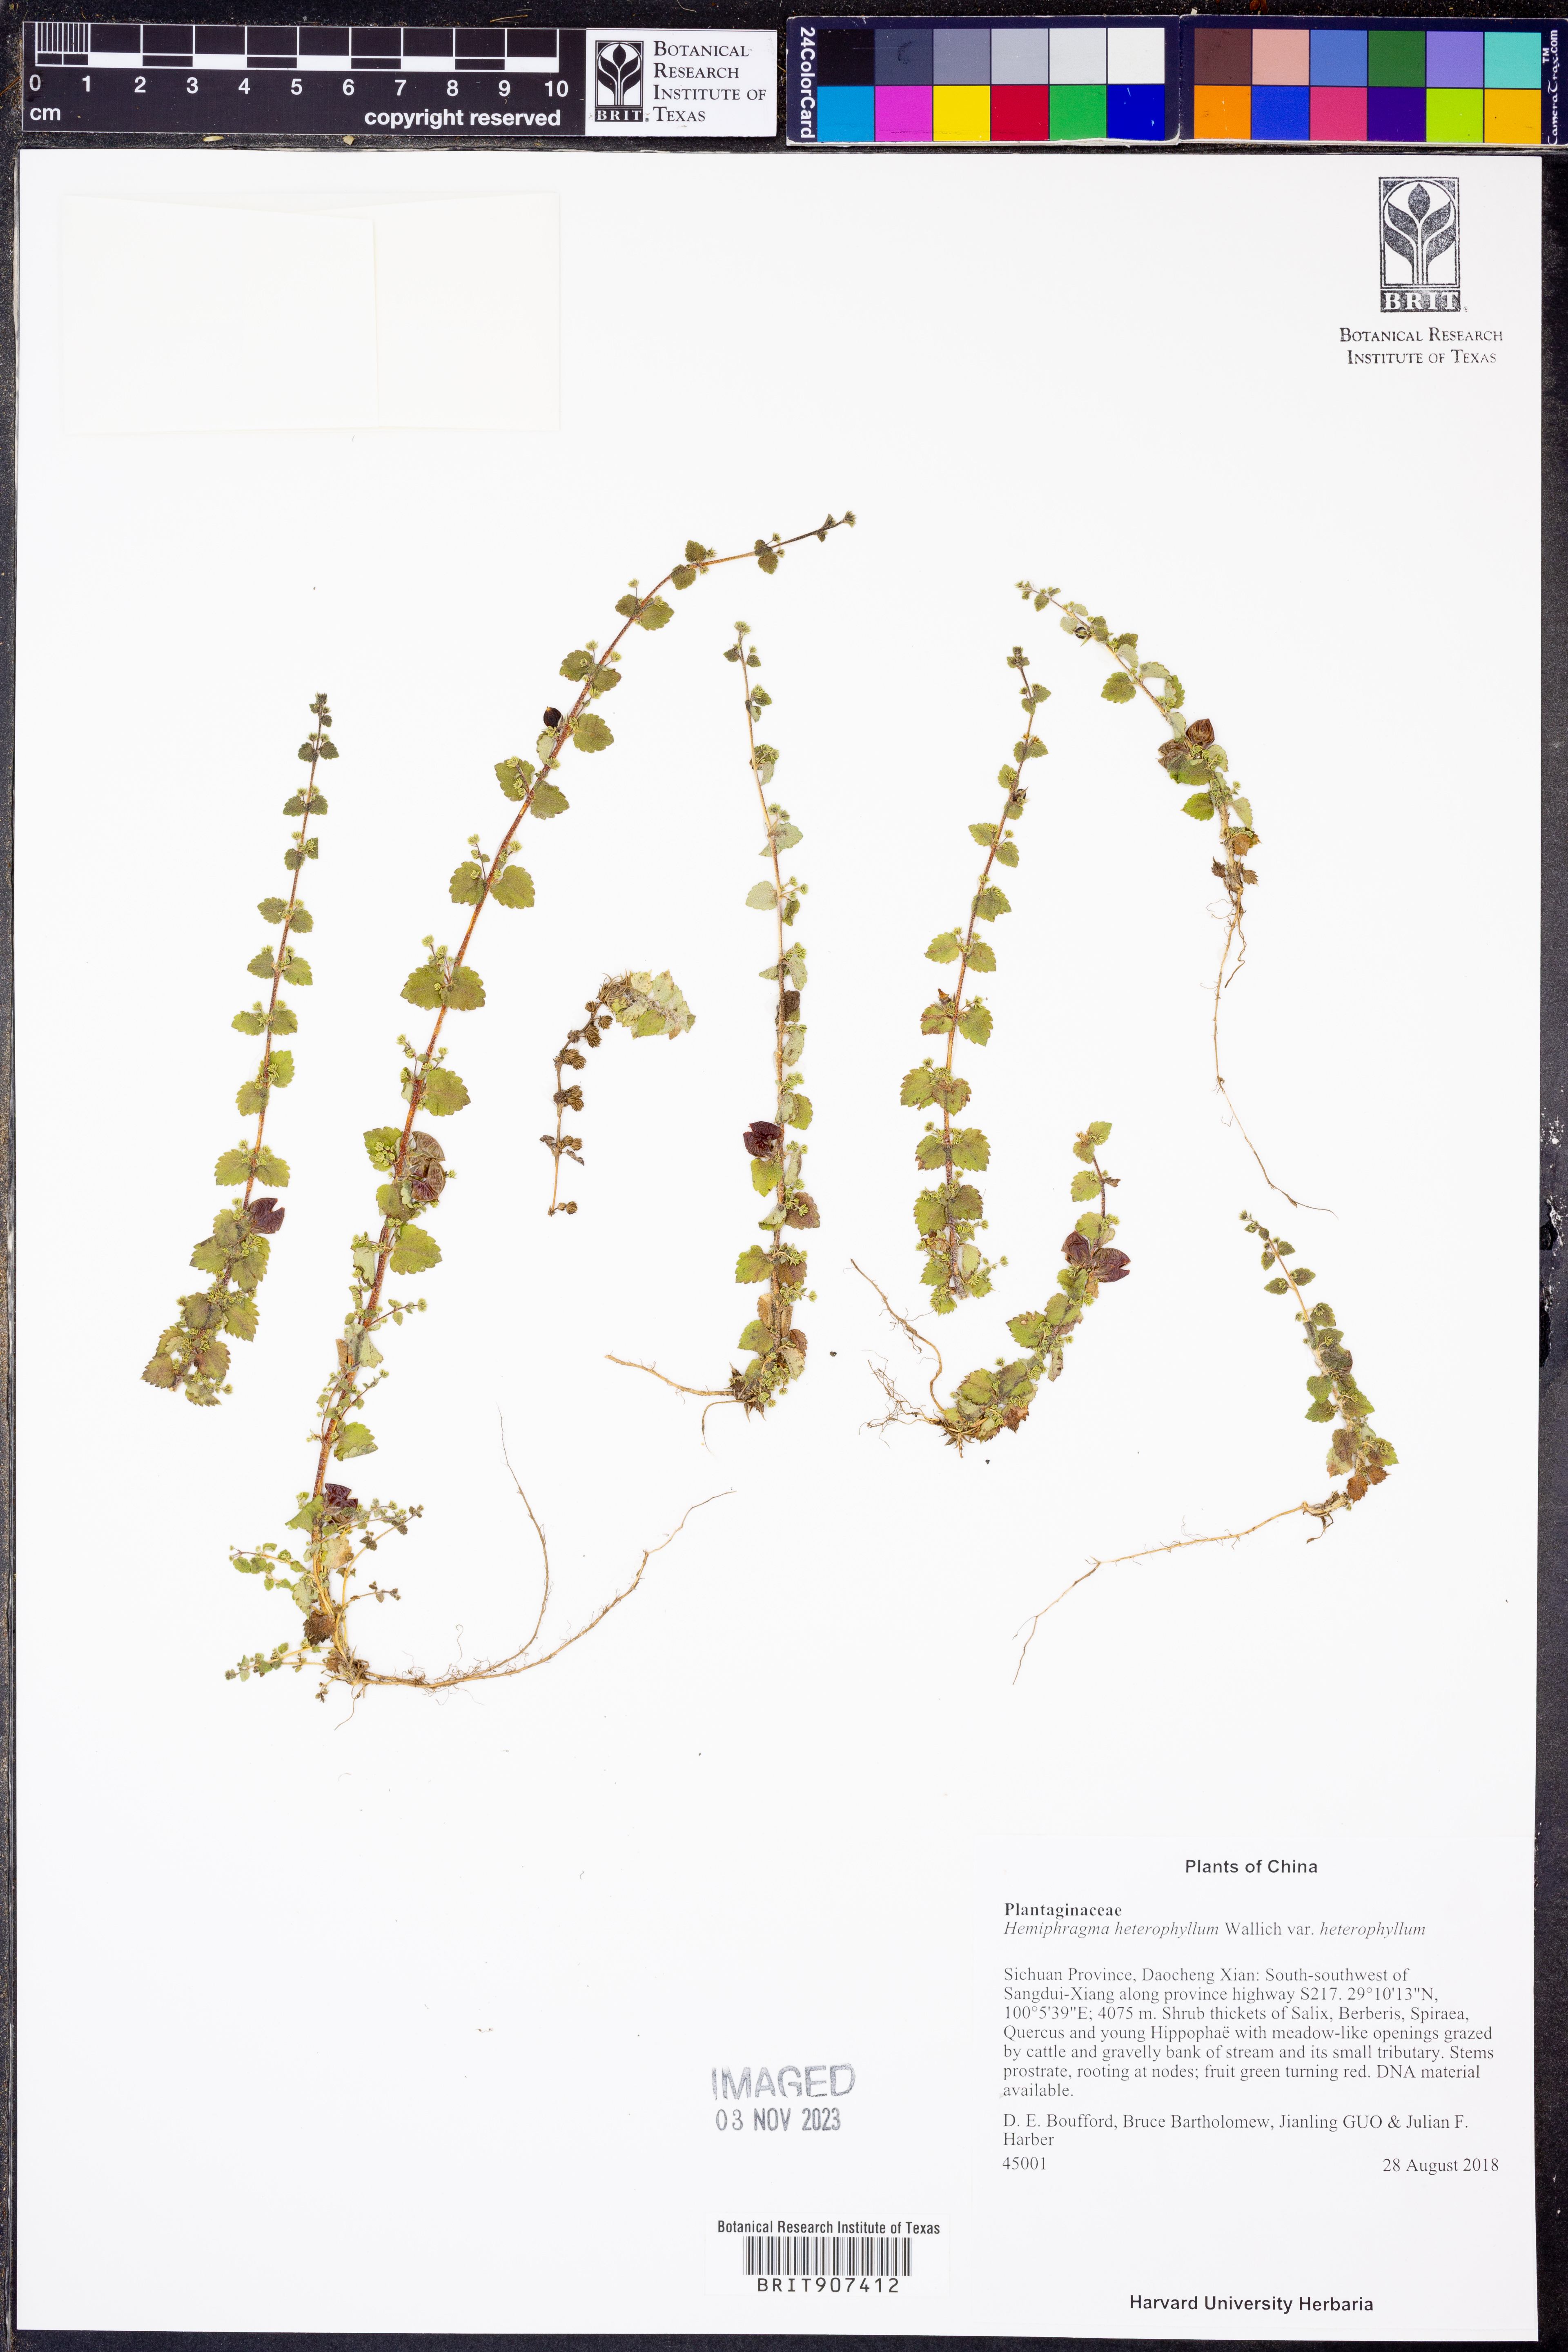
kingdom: Plantae
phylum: Tracheophyta
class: Magnoliopsida
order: Lamiales
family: Plantaginaceae
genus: Hemiphragma
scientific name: Hemiphragma heterophyllum
